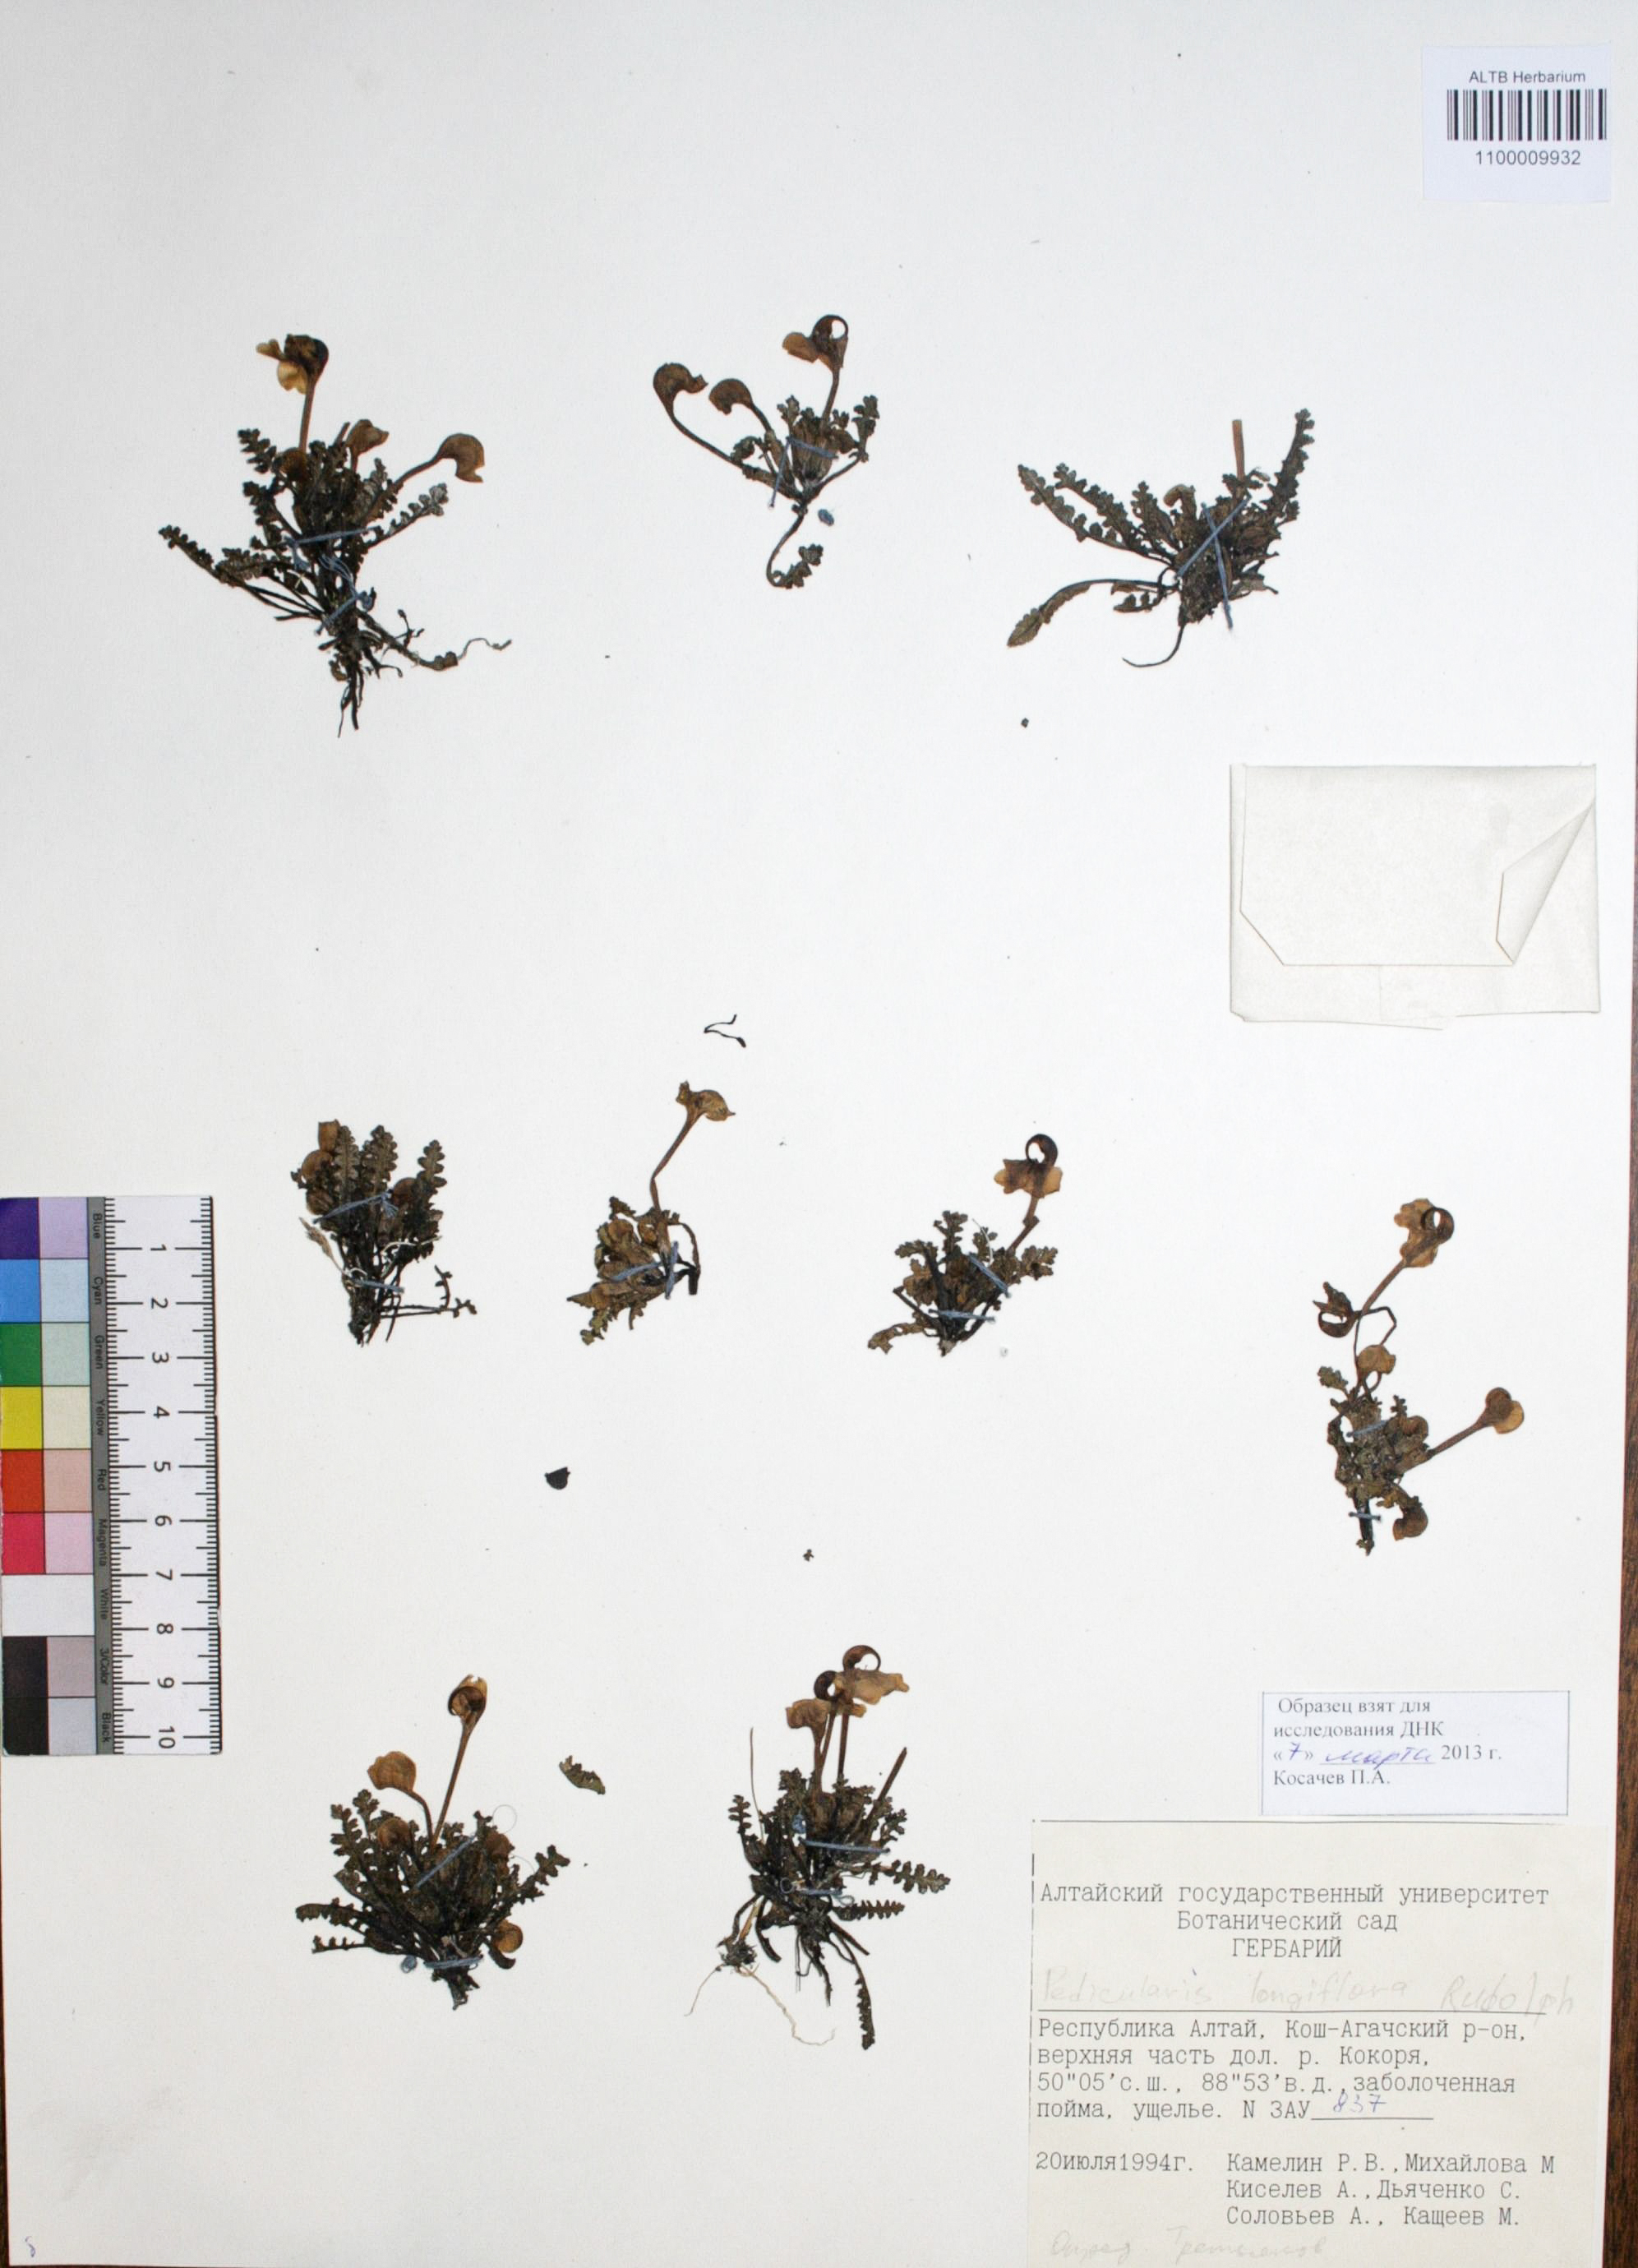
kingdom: Plantae
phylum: Tracheophyta
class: Magnoliopsida
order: Lamiales
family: Orobanchaceae
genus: Pedicularis
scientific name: Pedicularis longiflora
